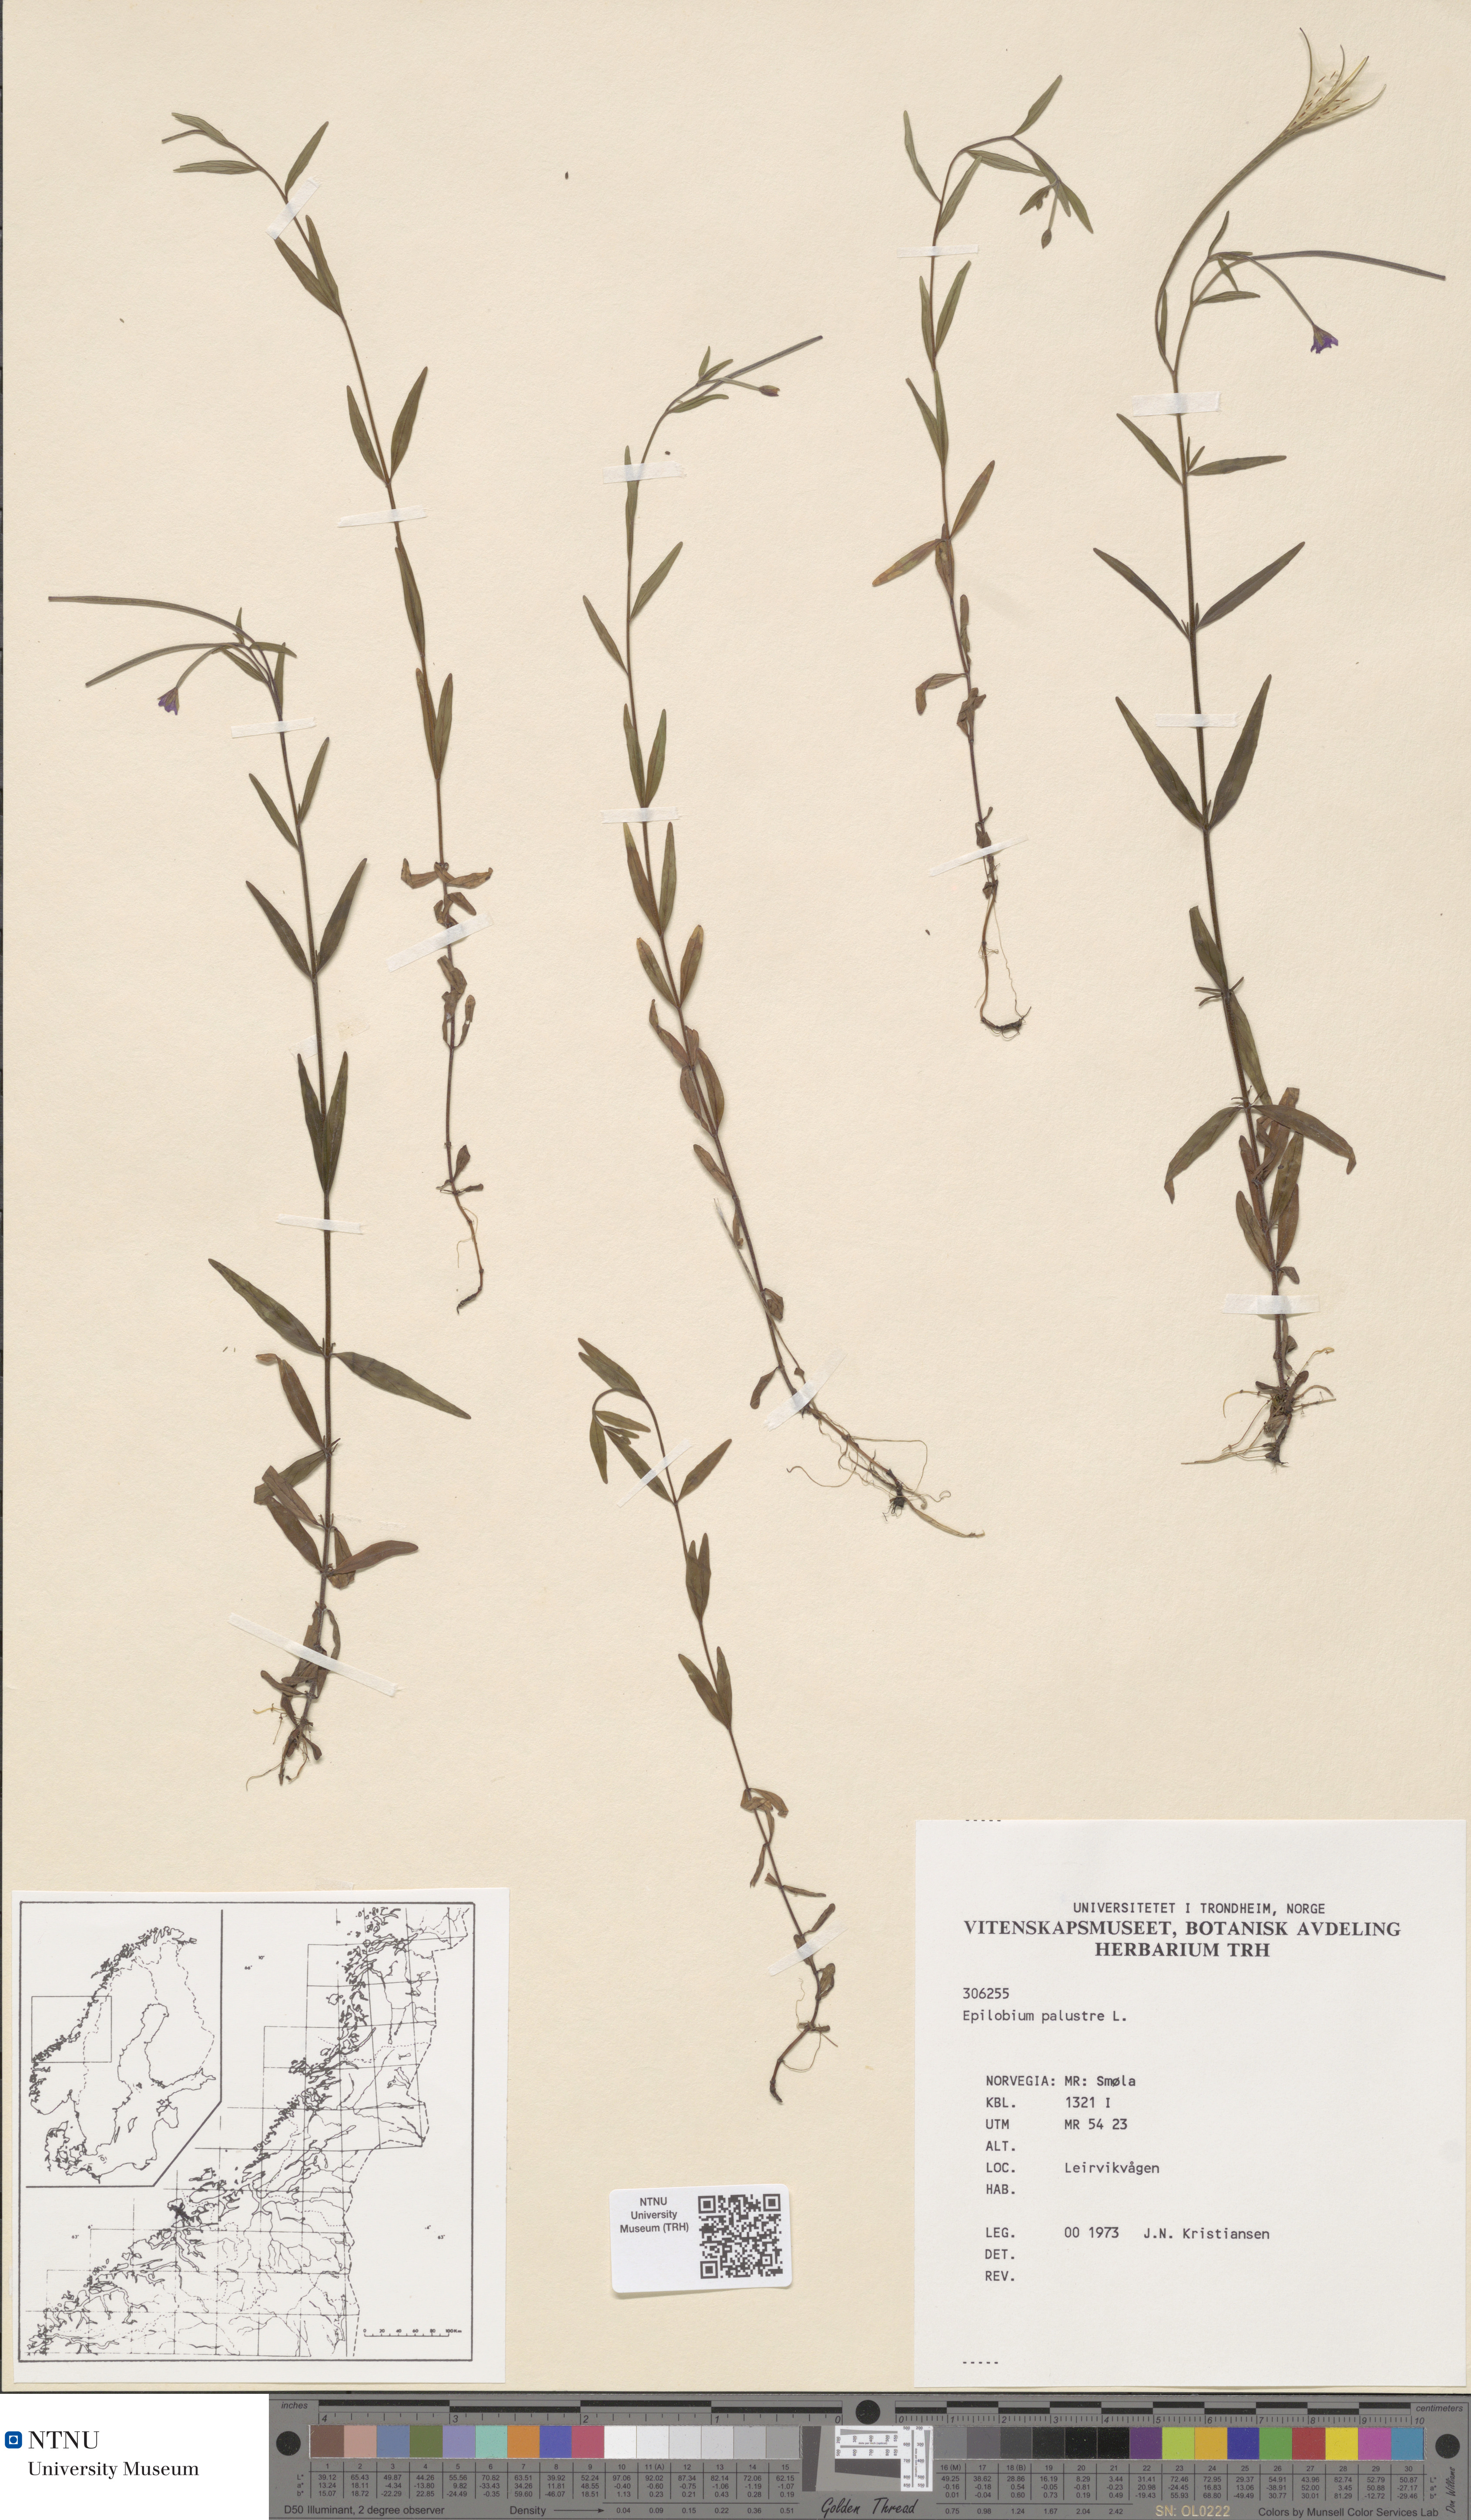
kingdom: Plantae
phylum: Tracheophyta
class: Magnoliopsida
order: Myrtales
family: Onagraceae
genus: Epilobium
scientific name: Epilobium palustre
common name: Marsh willowherb
